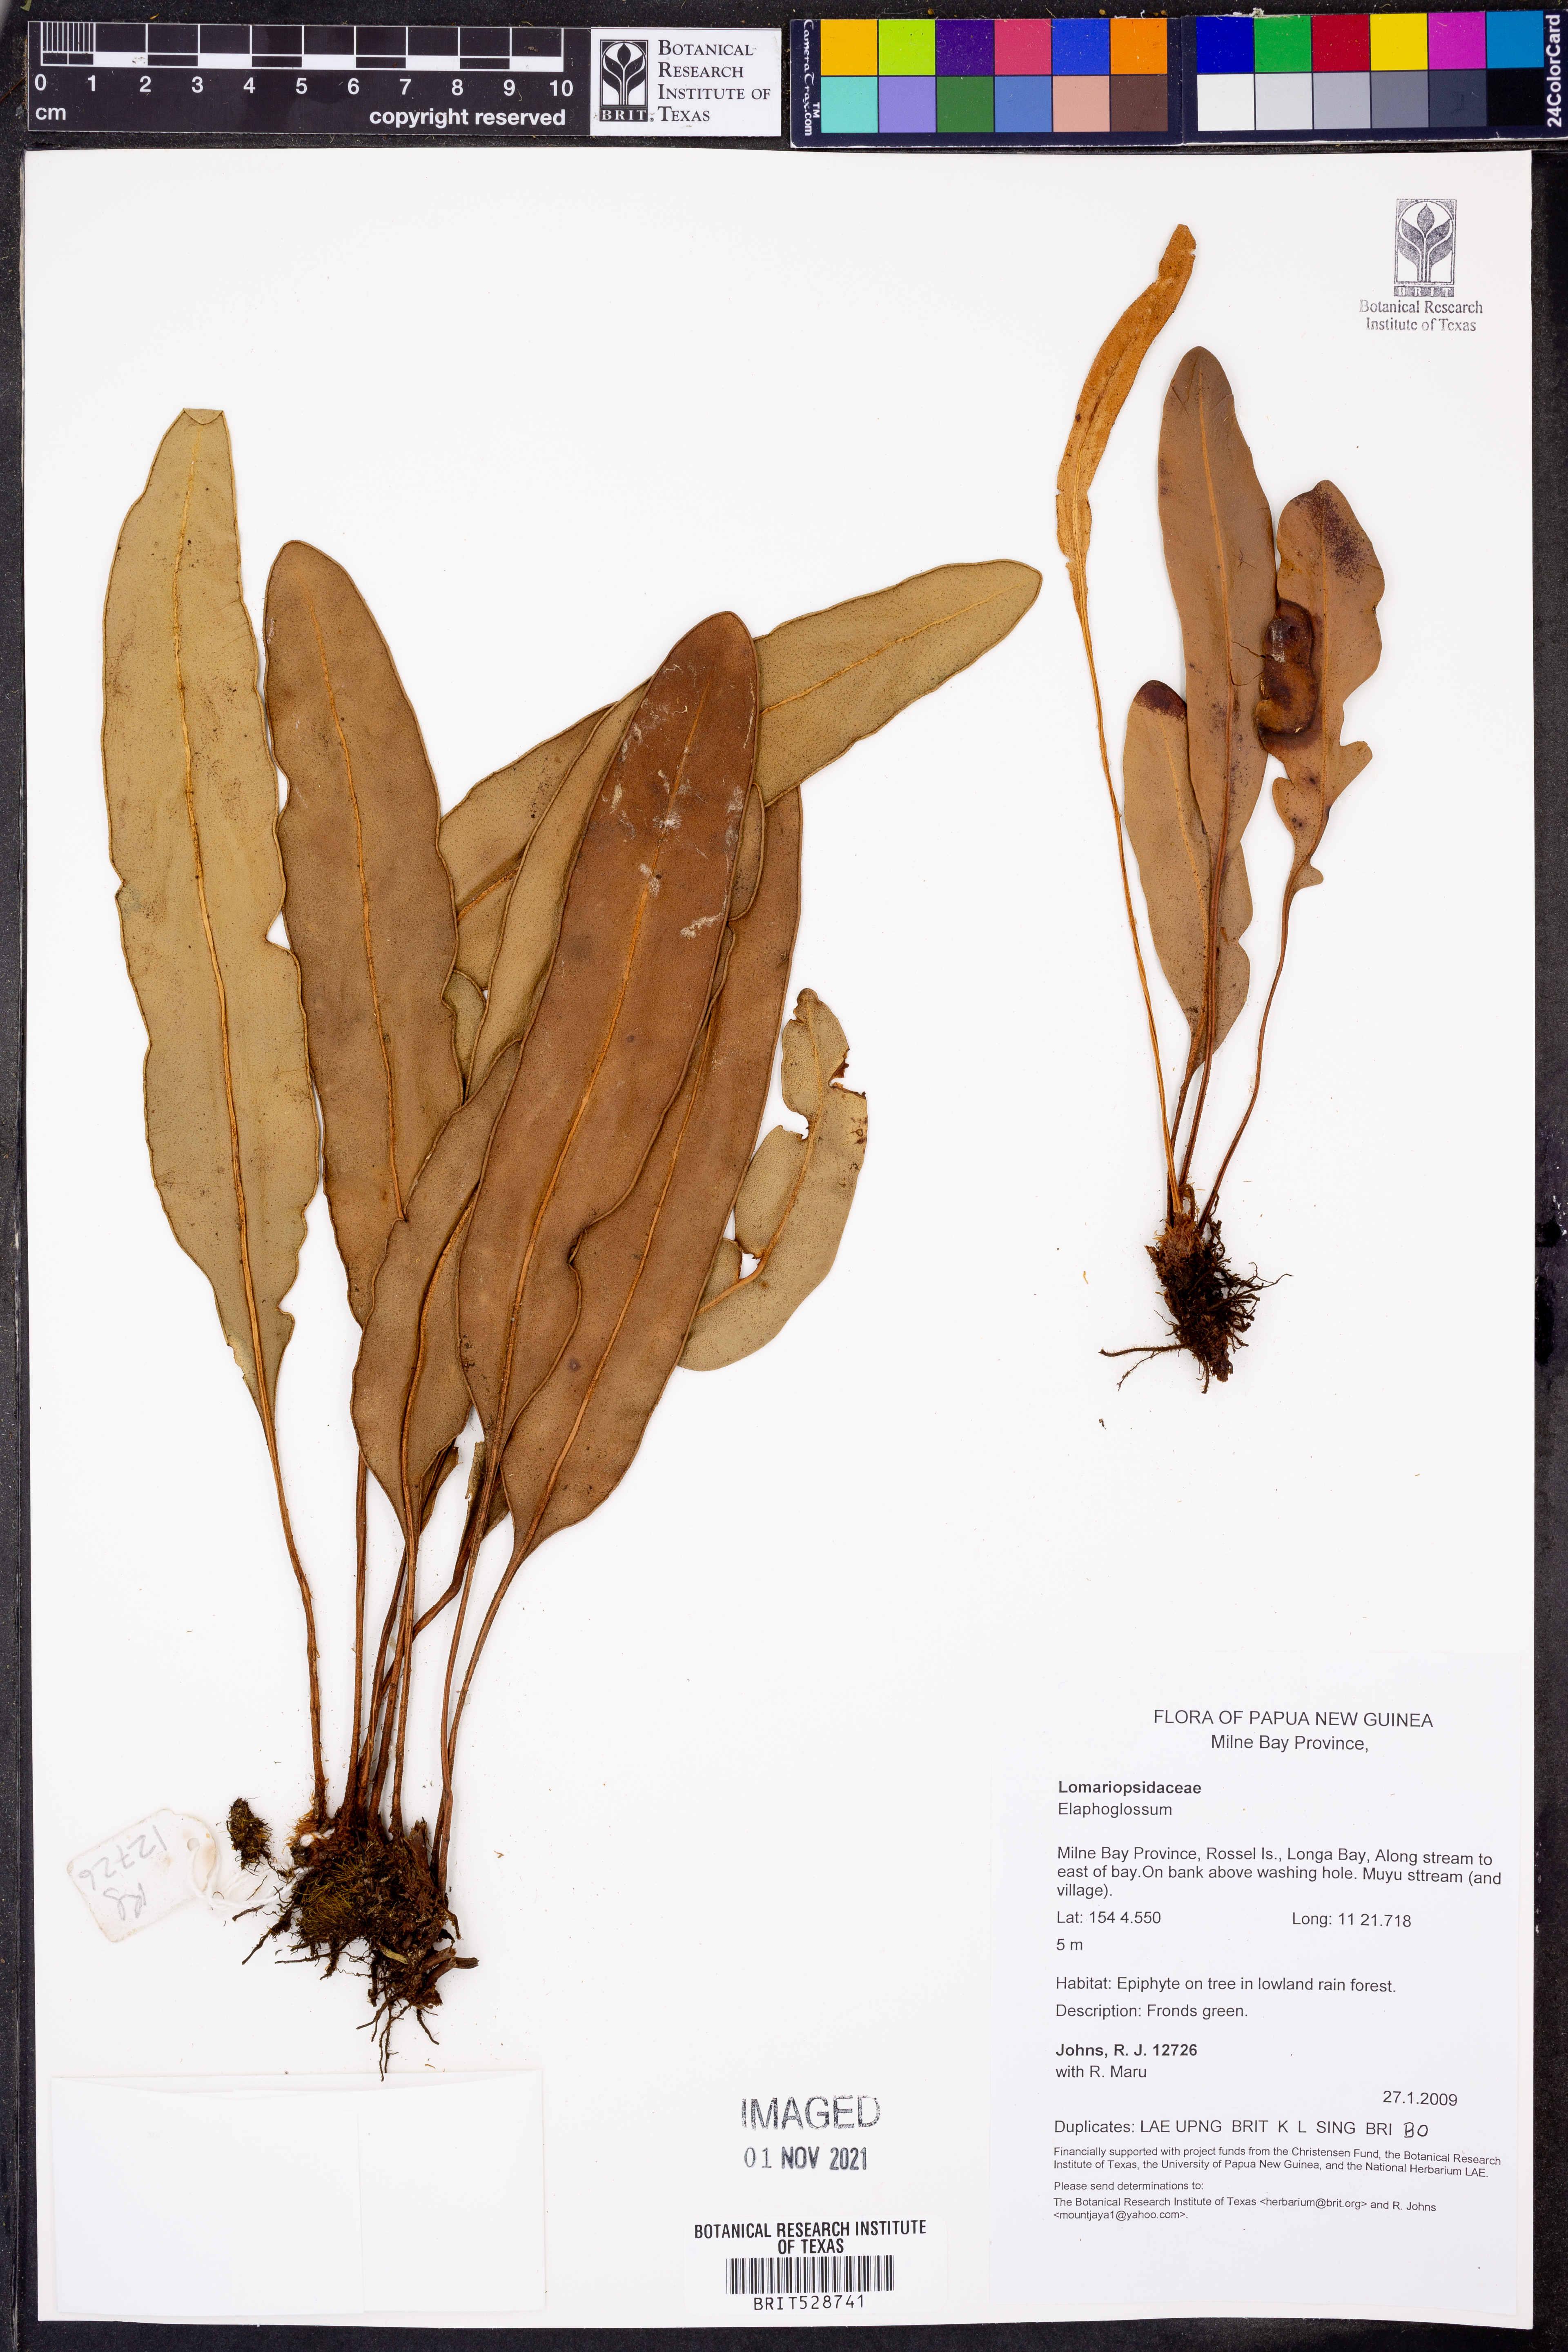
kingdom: Plantae
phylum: Tracheophyta
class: Polypodiopsida
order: Polypodiales
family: Dryopteridaceae
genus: Elaphoglossum
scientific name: Elaphoglossum
